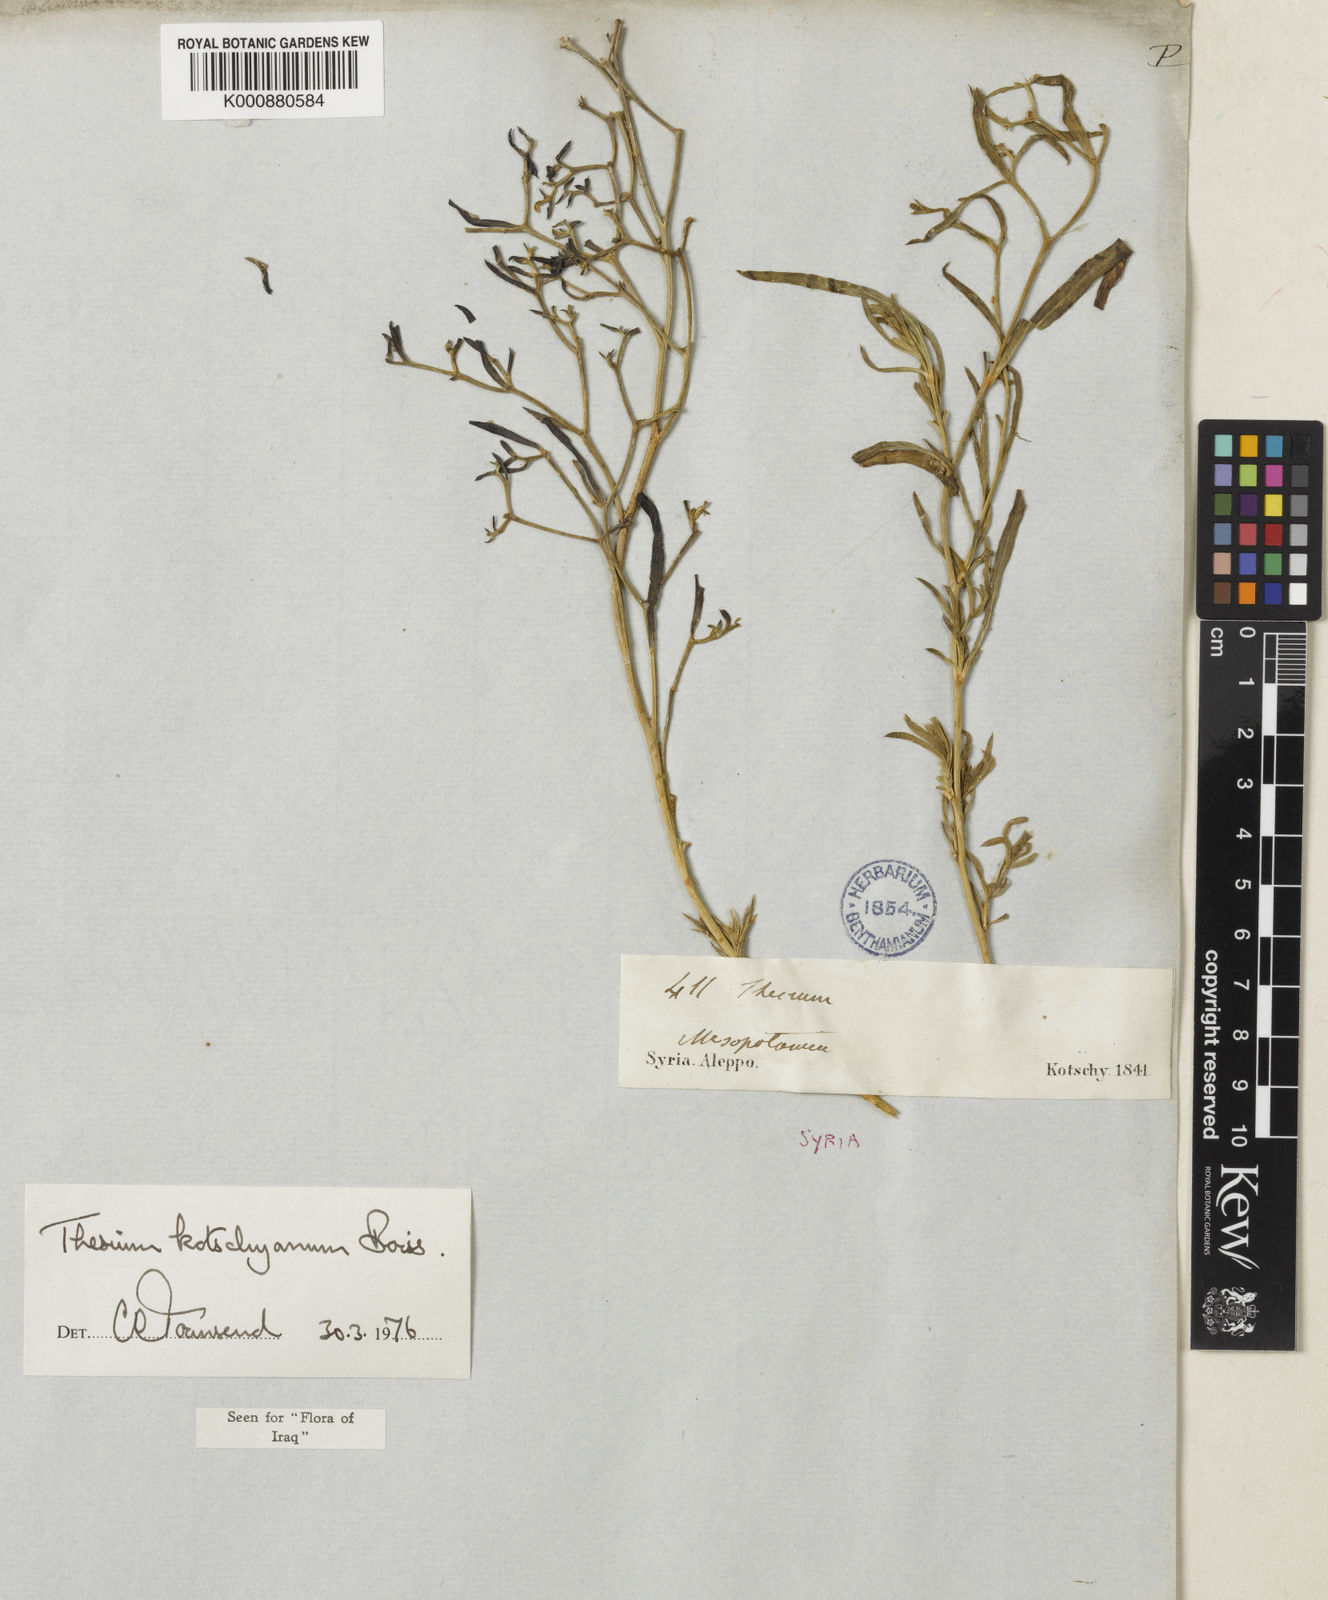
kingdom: Plantae
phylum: Tracheophyta
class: Magnoliopsida
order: Santalales
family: Thesiaceae
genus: Thesium
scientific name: Thesium kotschyanum
